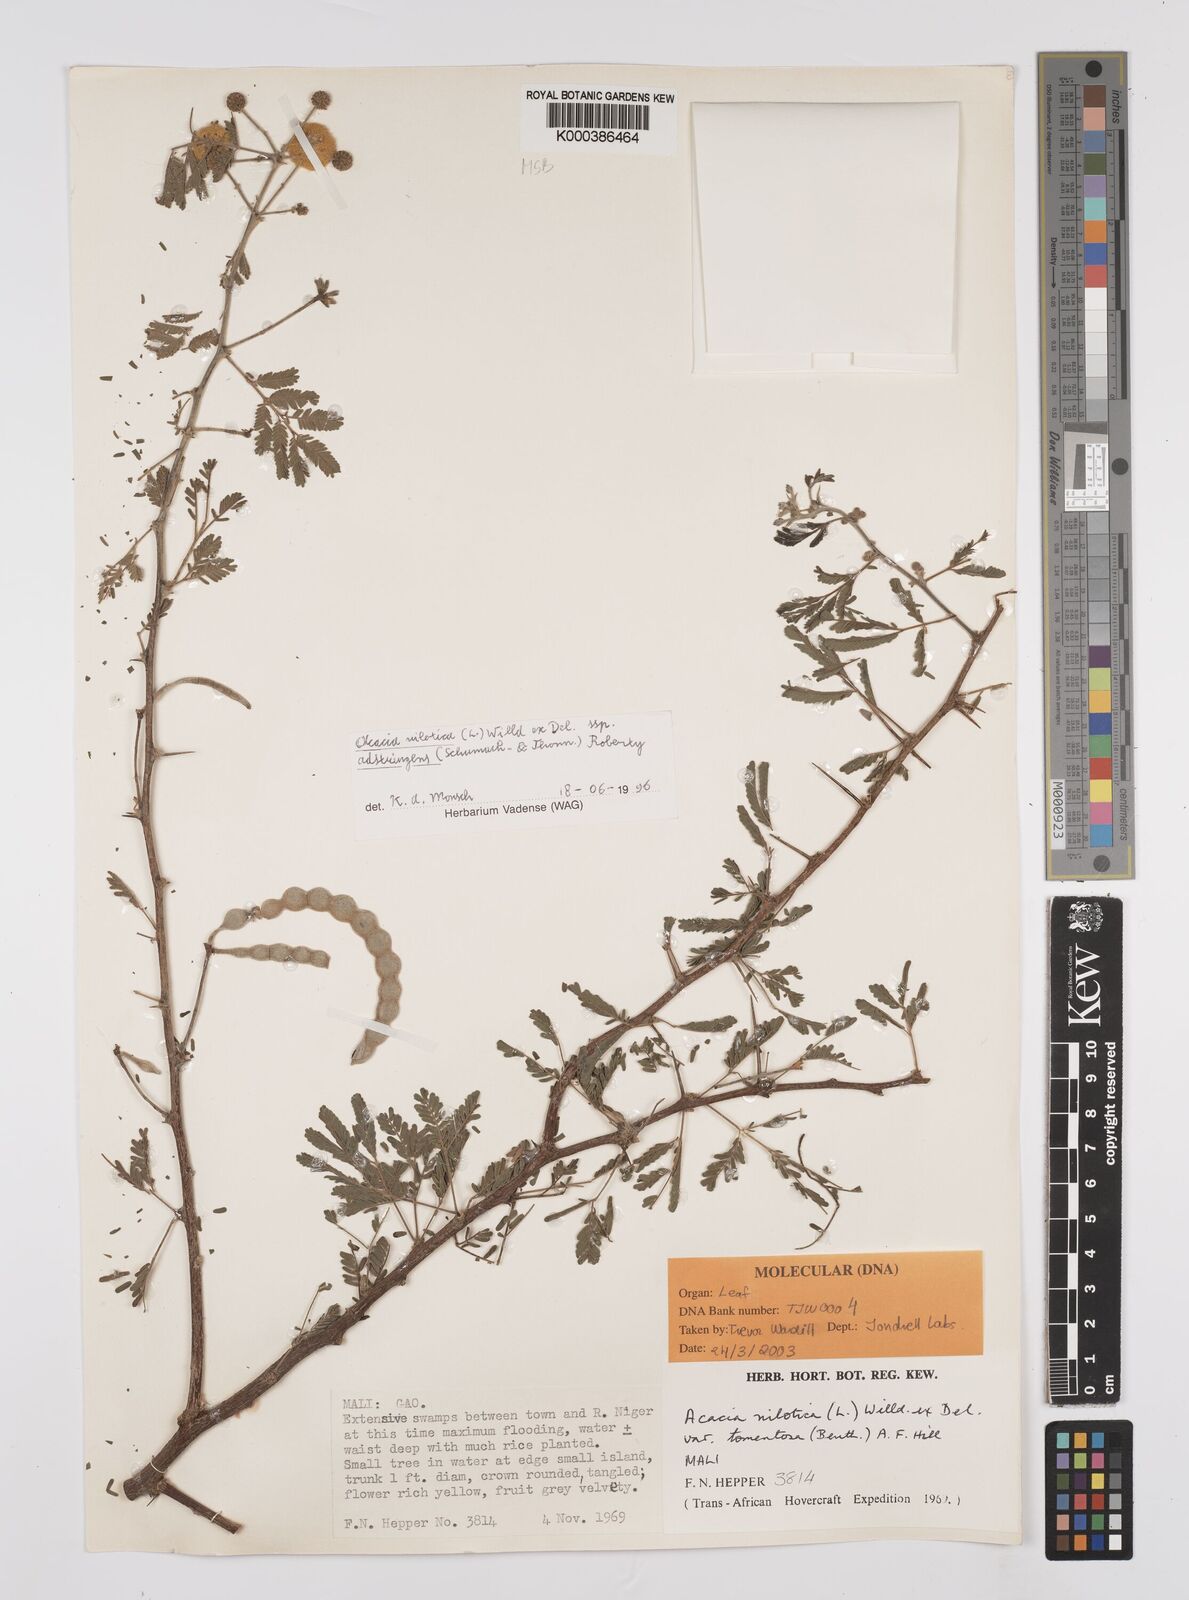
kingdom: Plantae
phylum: Tracheophyta
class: Magnoliopsida
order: Fabales
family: Fabaceae
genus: Vachellia
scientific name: Vachellia nilotica
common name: Arabic gumtree
